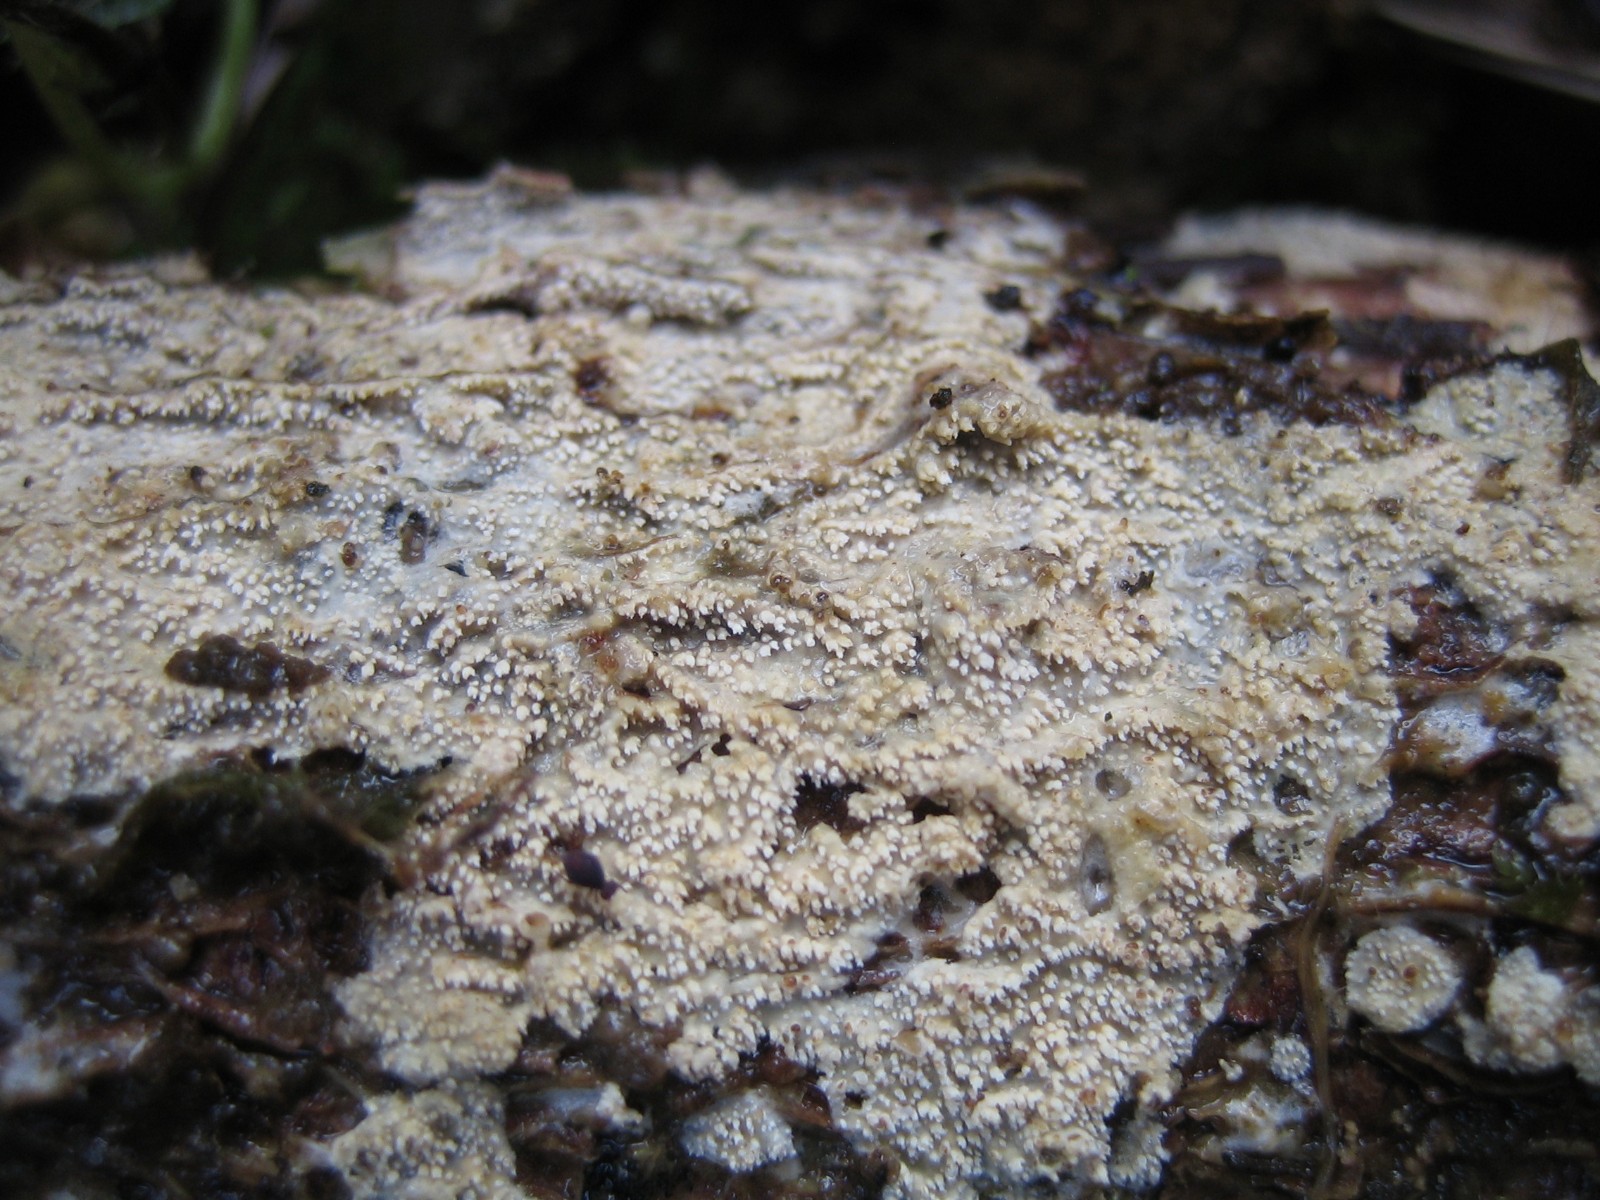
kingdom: Fungi
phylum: Basidiomycota
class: Agaricomycetes
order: Hymenochaetales
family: Schizoporaceae
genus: Xylodon
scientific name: Xylodon
